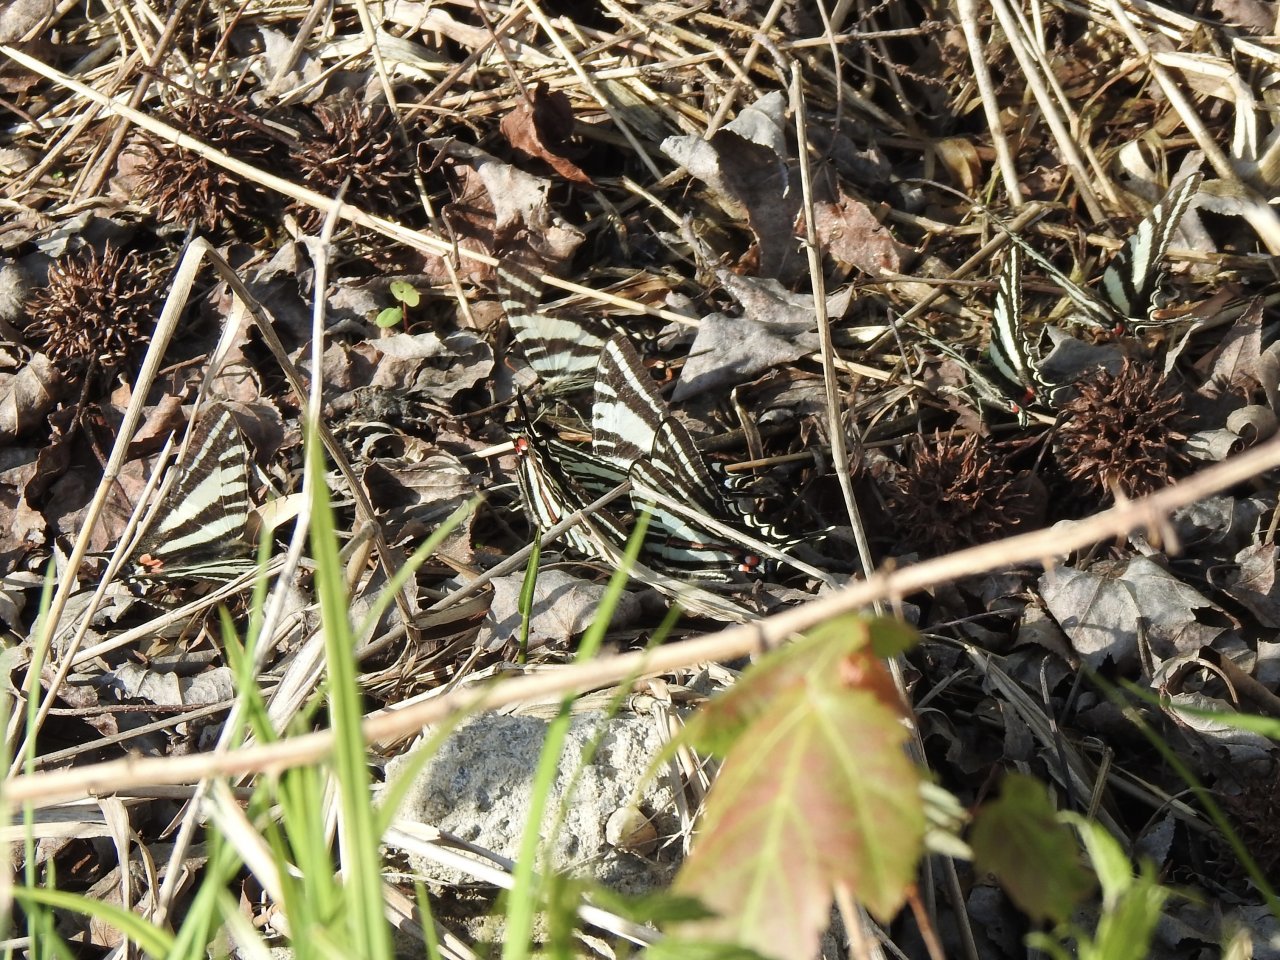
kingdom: Animalia
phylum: Arthropoda
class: Insecta
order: Lepidoptera
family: Papilionidae
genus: Protographium
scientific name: Protographium marcellus
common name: Zebra Swallowtail
